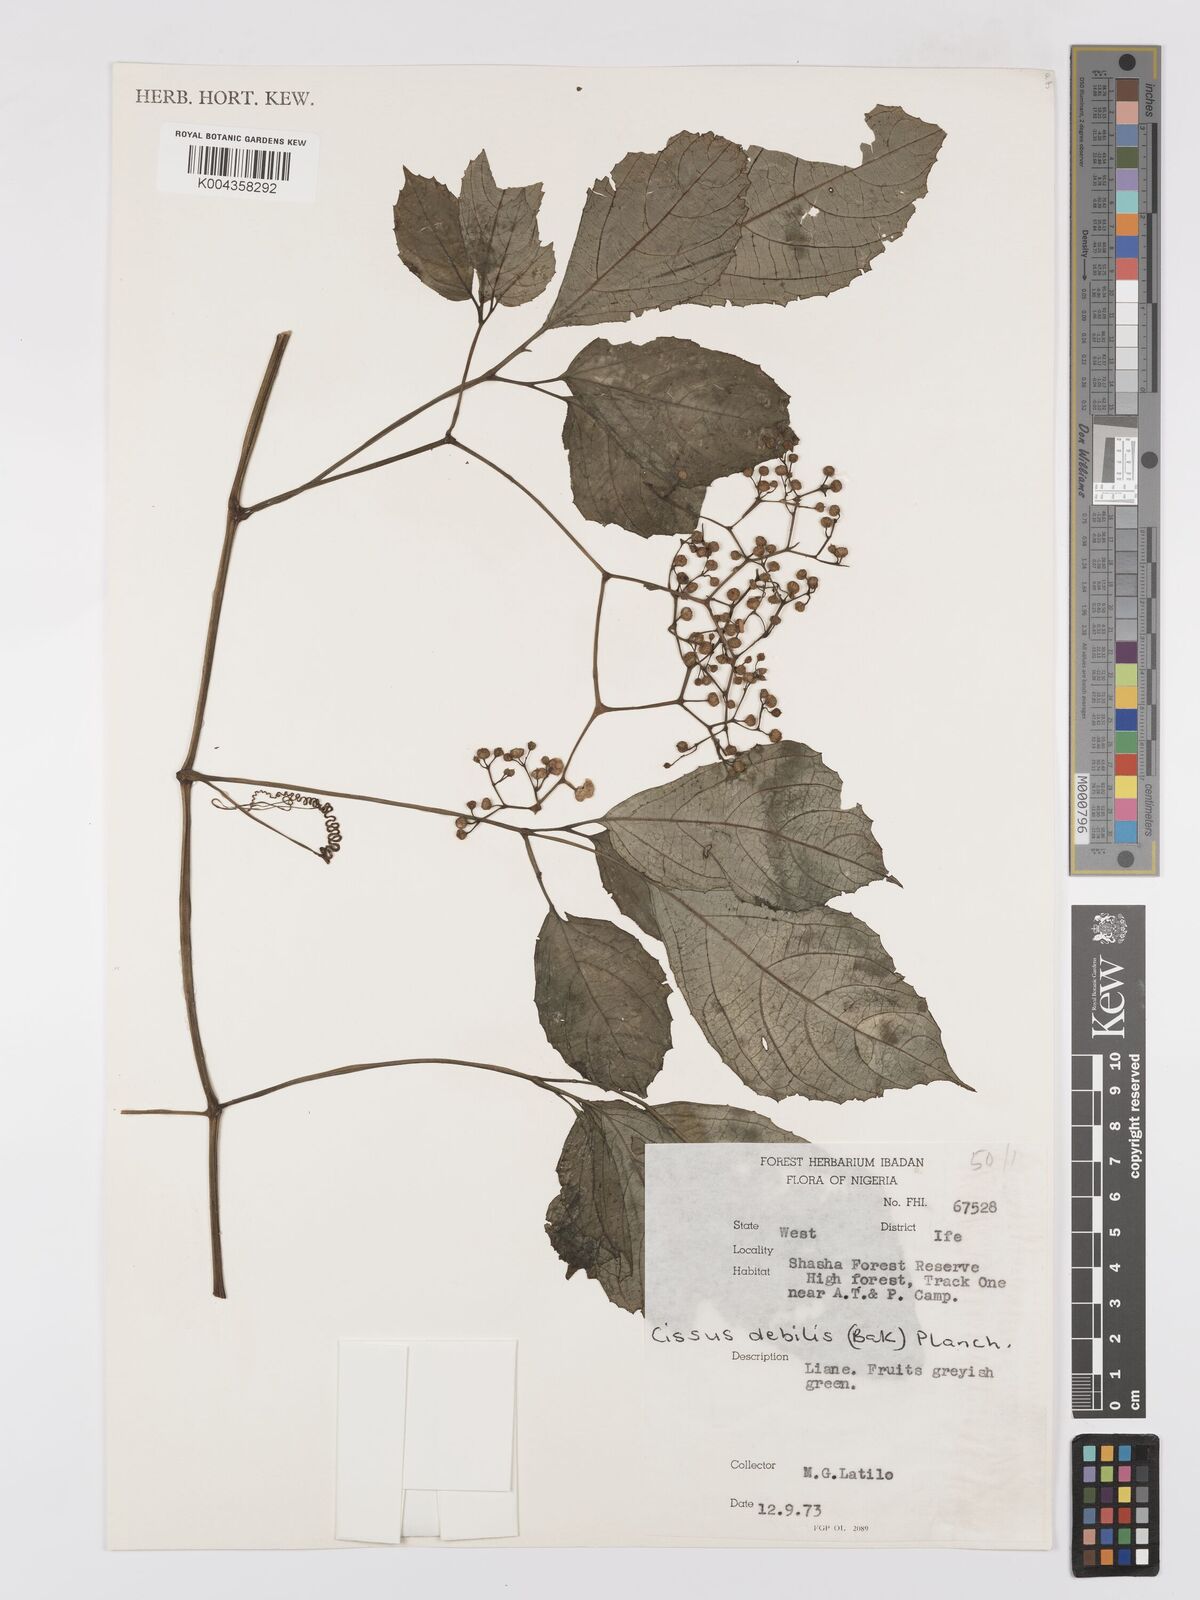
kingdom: Plantae
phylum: Tracheophyta
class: Magnoliopsida
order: Vitales
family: Vitaceae
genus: Afrocayratia
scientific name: Afrocayratia debilis
